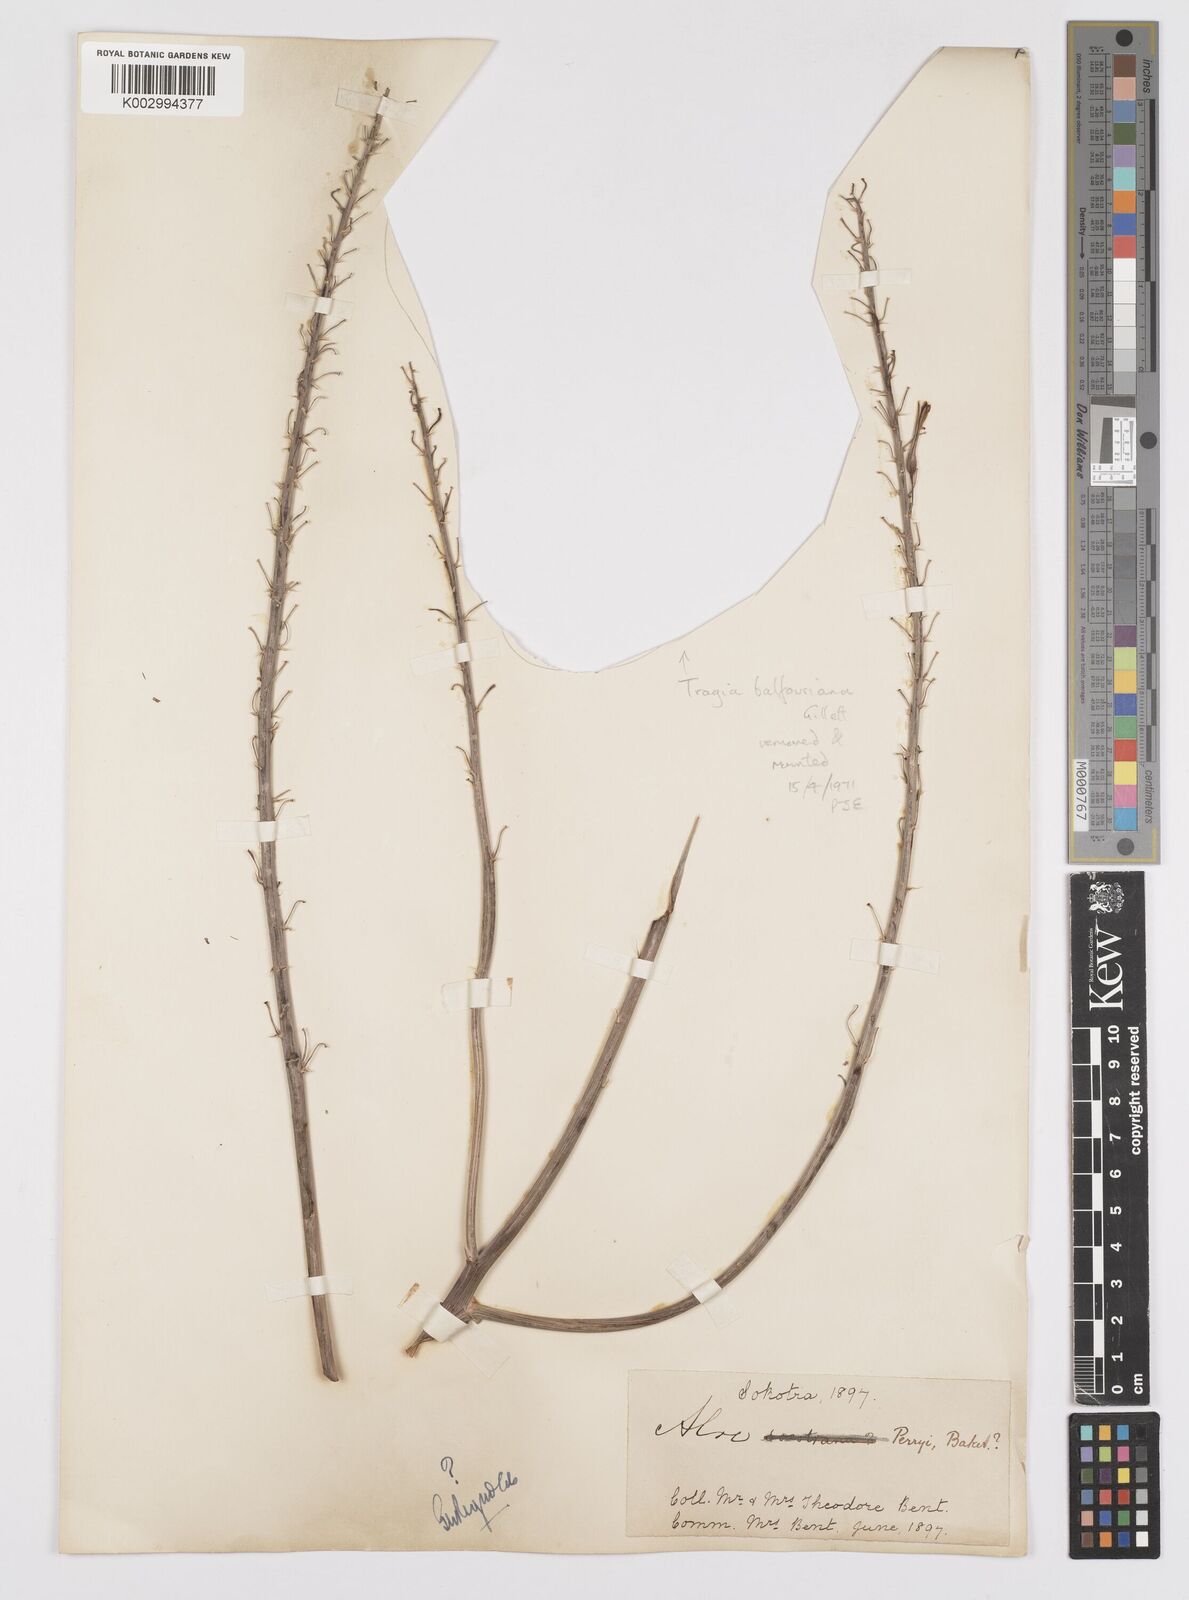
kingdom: Plantae
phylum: Tracheophyta
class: Liliopsida
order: Asparagales
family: Asphodelaceae
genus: Aloe
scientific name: Aloe perryi
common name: Socotrine aloe
